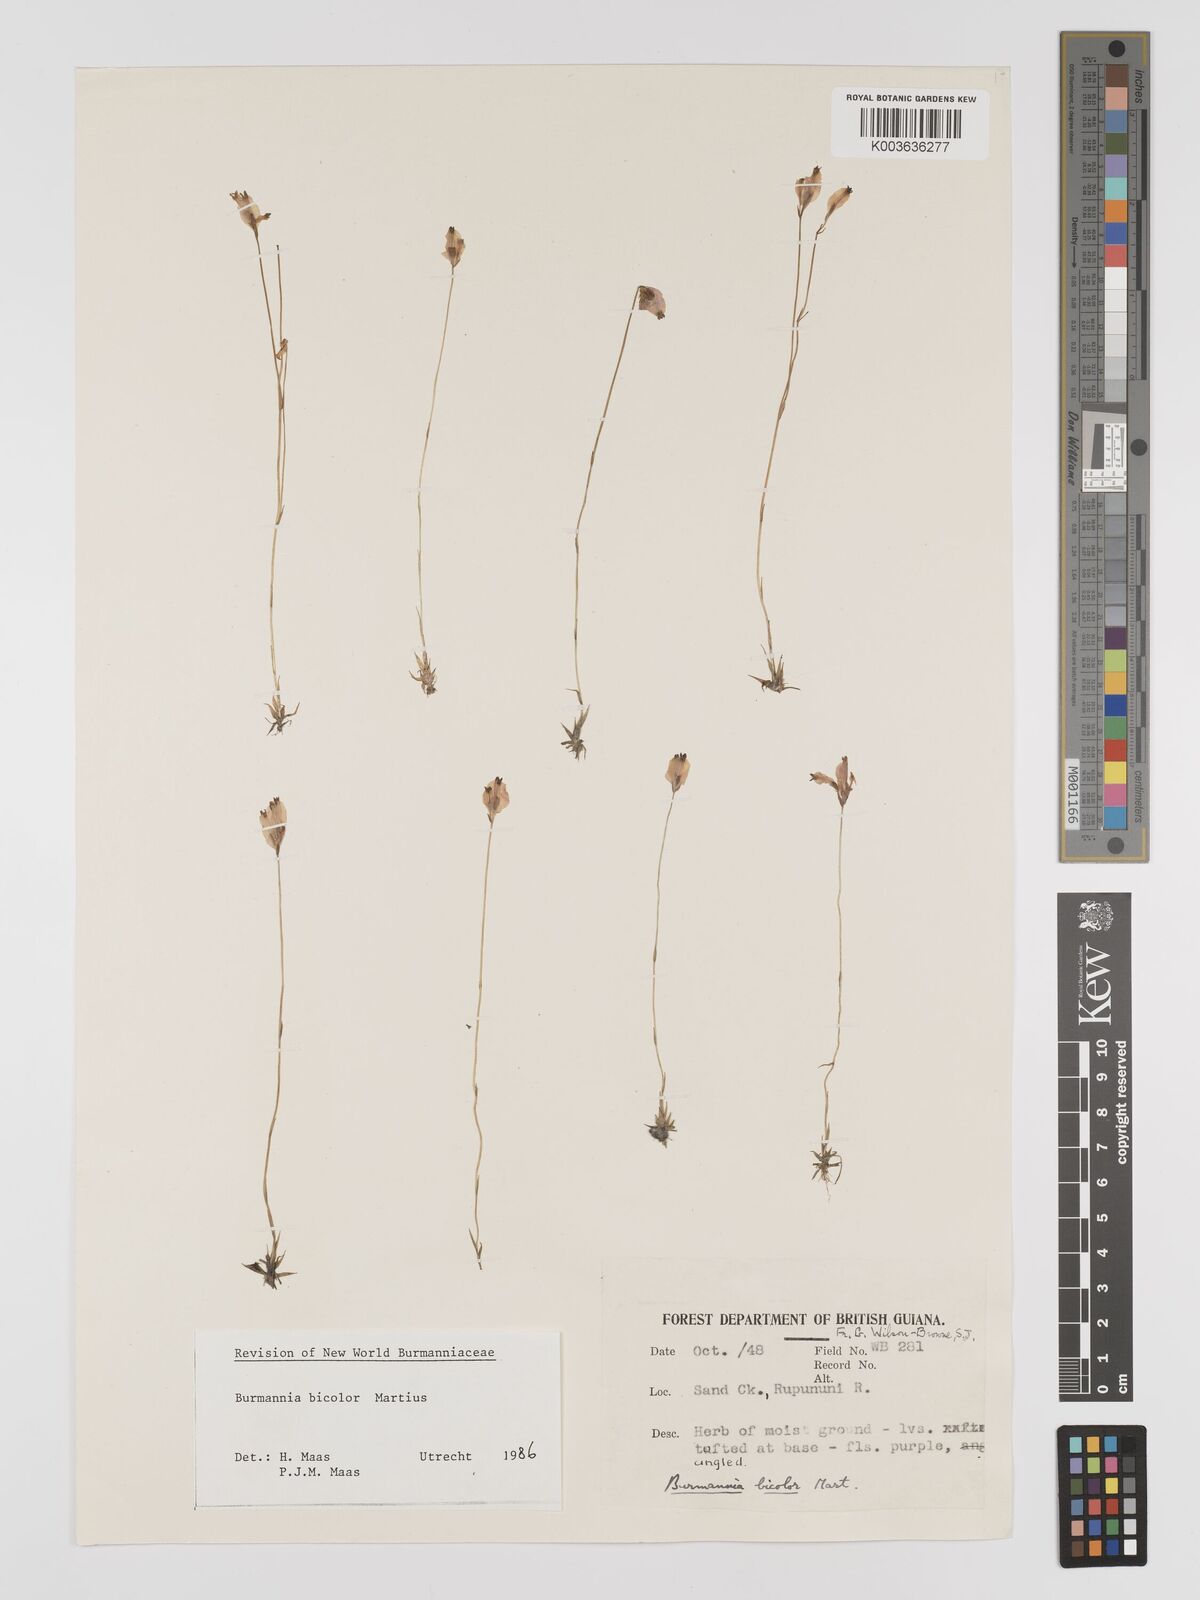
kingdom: Plantae
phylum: Tracheophyta
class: Liliopsida
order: Dioscoreales
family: Burmanniaceae
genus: Burmannia
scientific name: Burmannia bicolor
